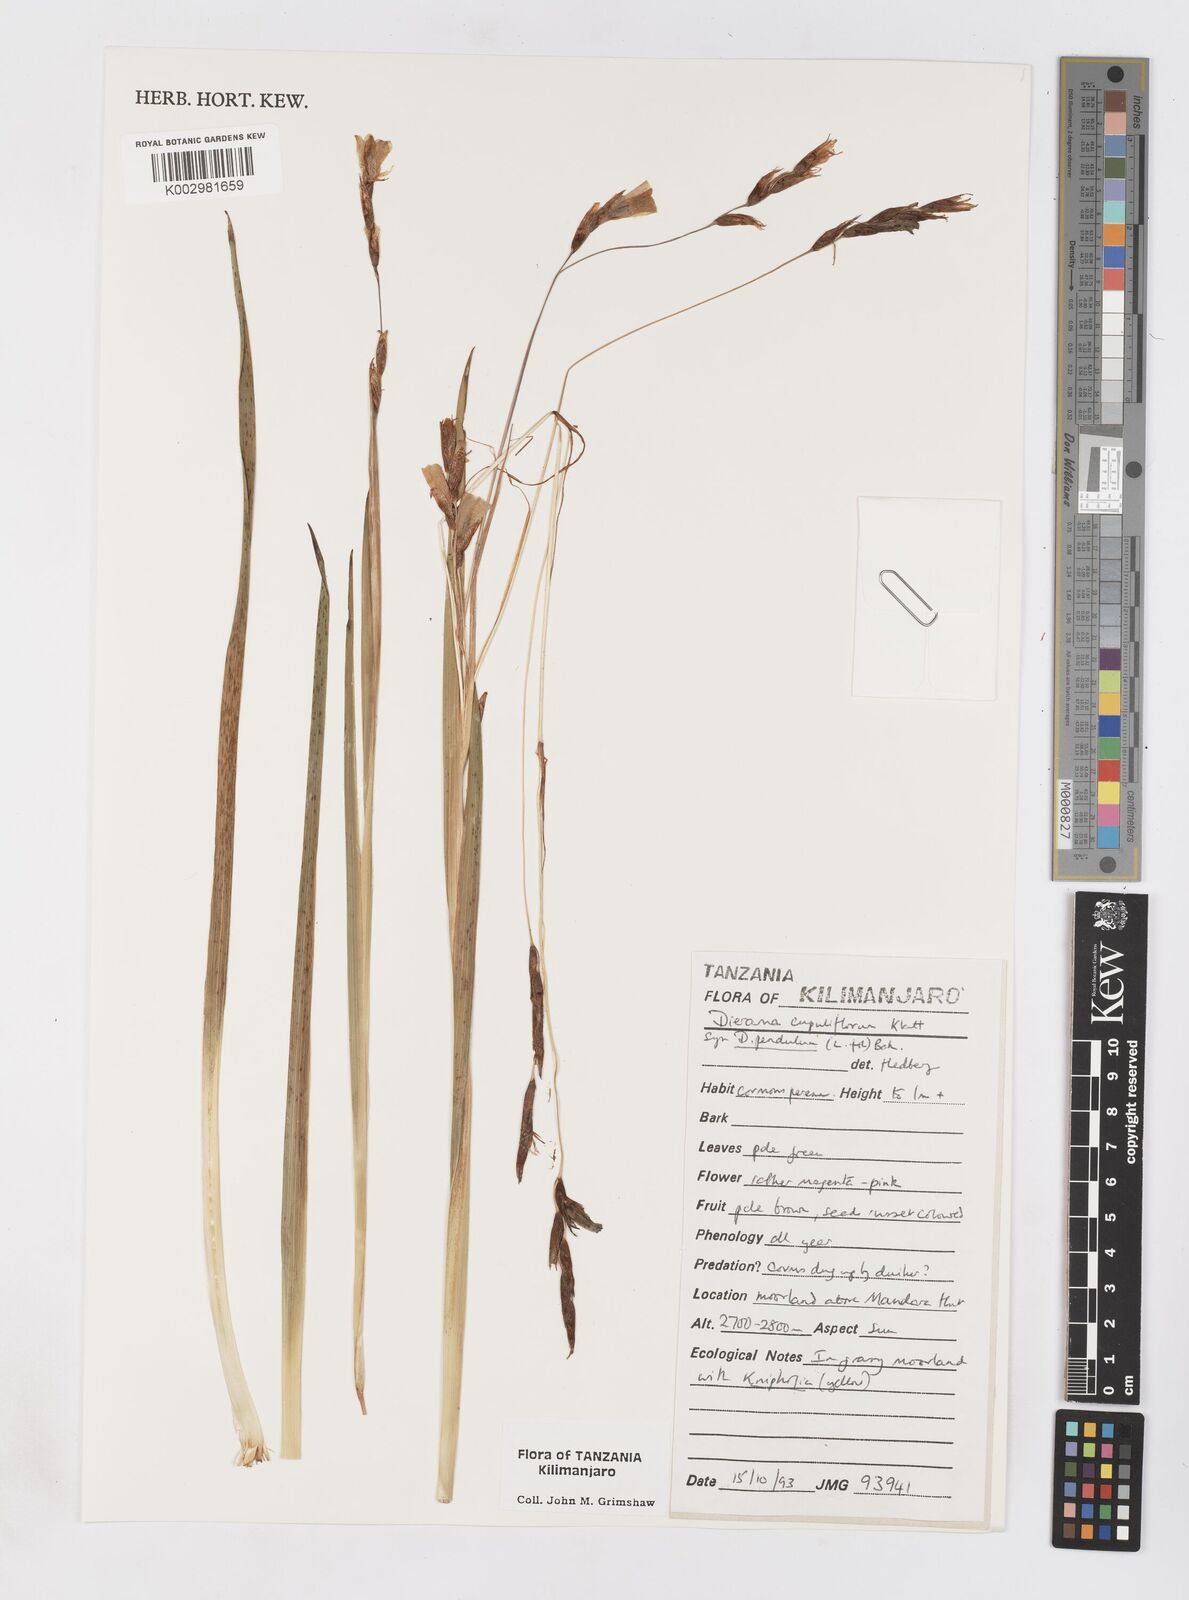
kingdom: Plantae
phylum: Tracheophyta
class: Liliopsida
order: Asparagales
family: Iridaceae
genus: Dierama
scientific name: Dierama cupuliflorum
